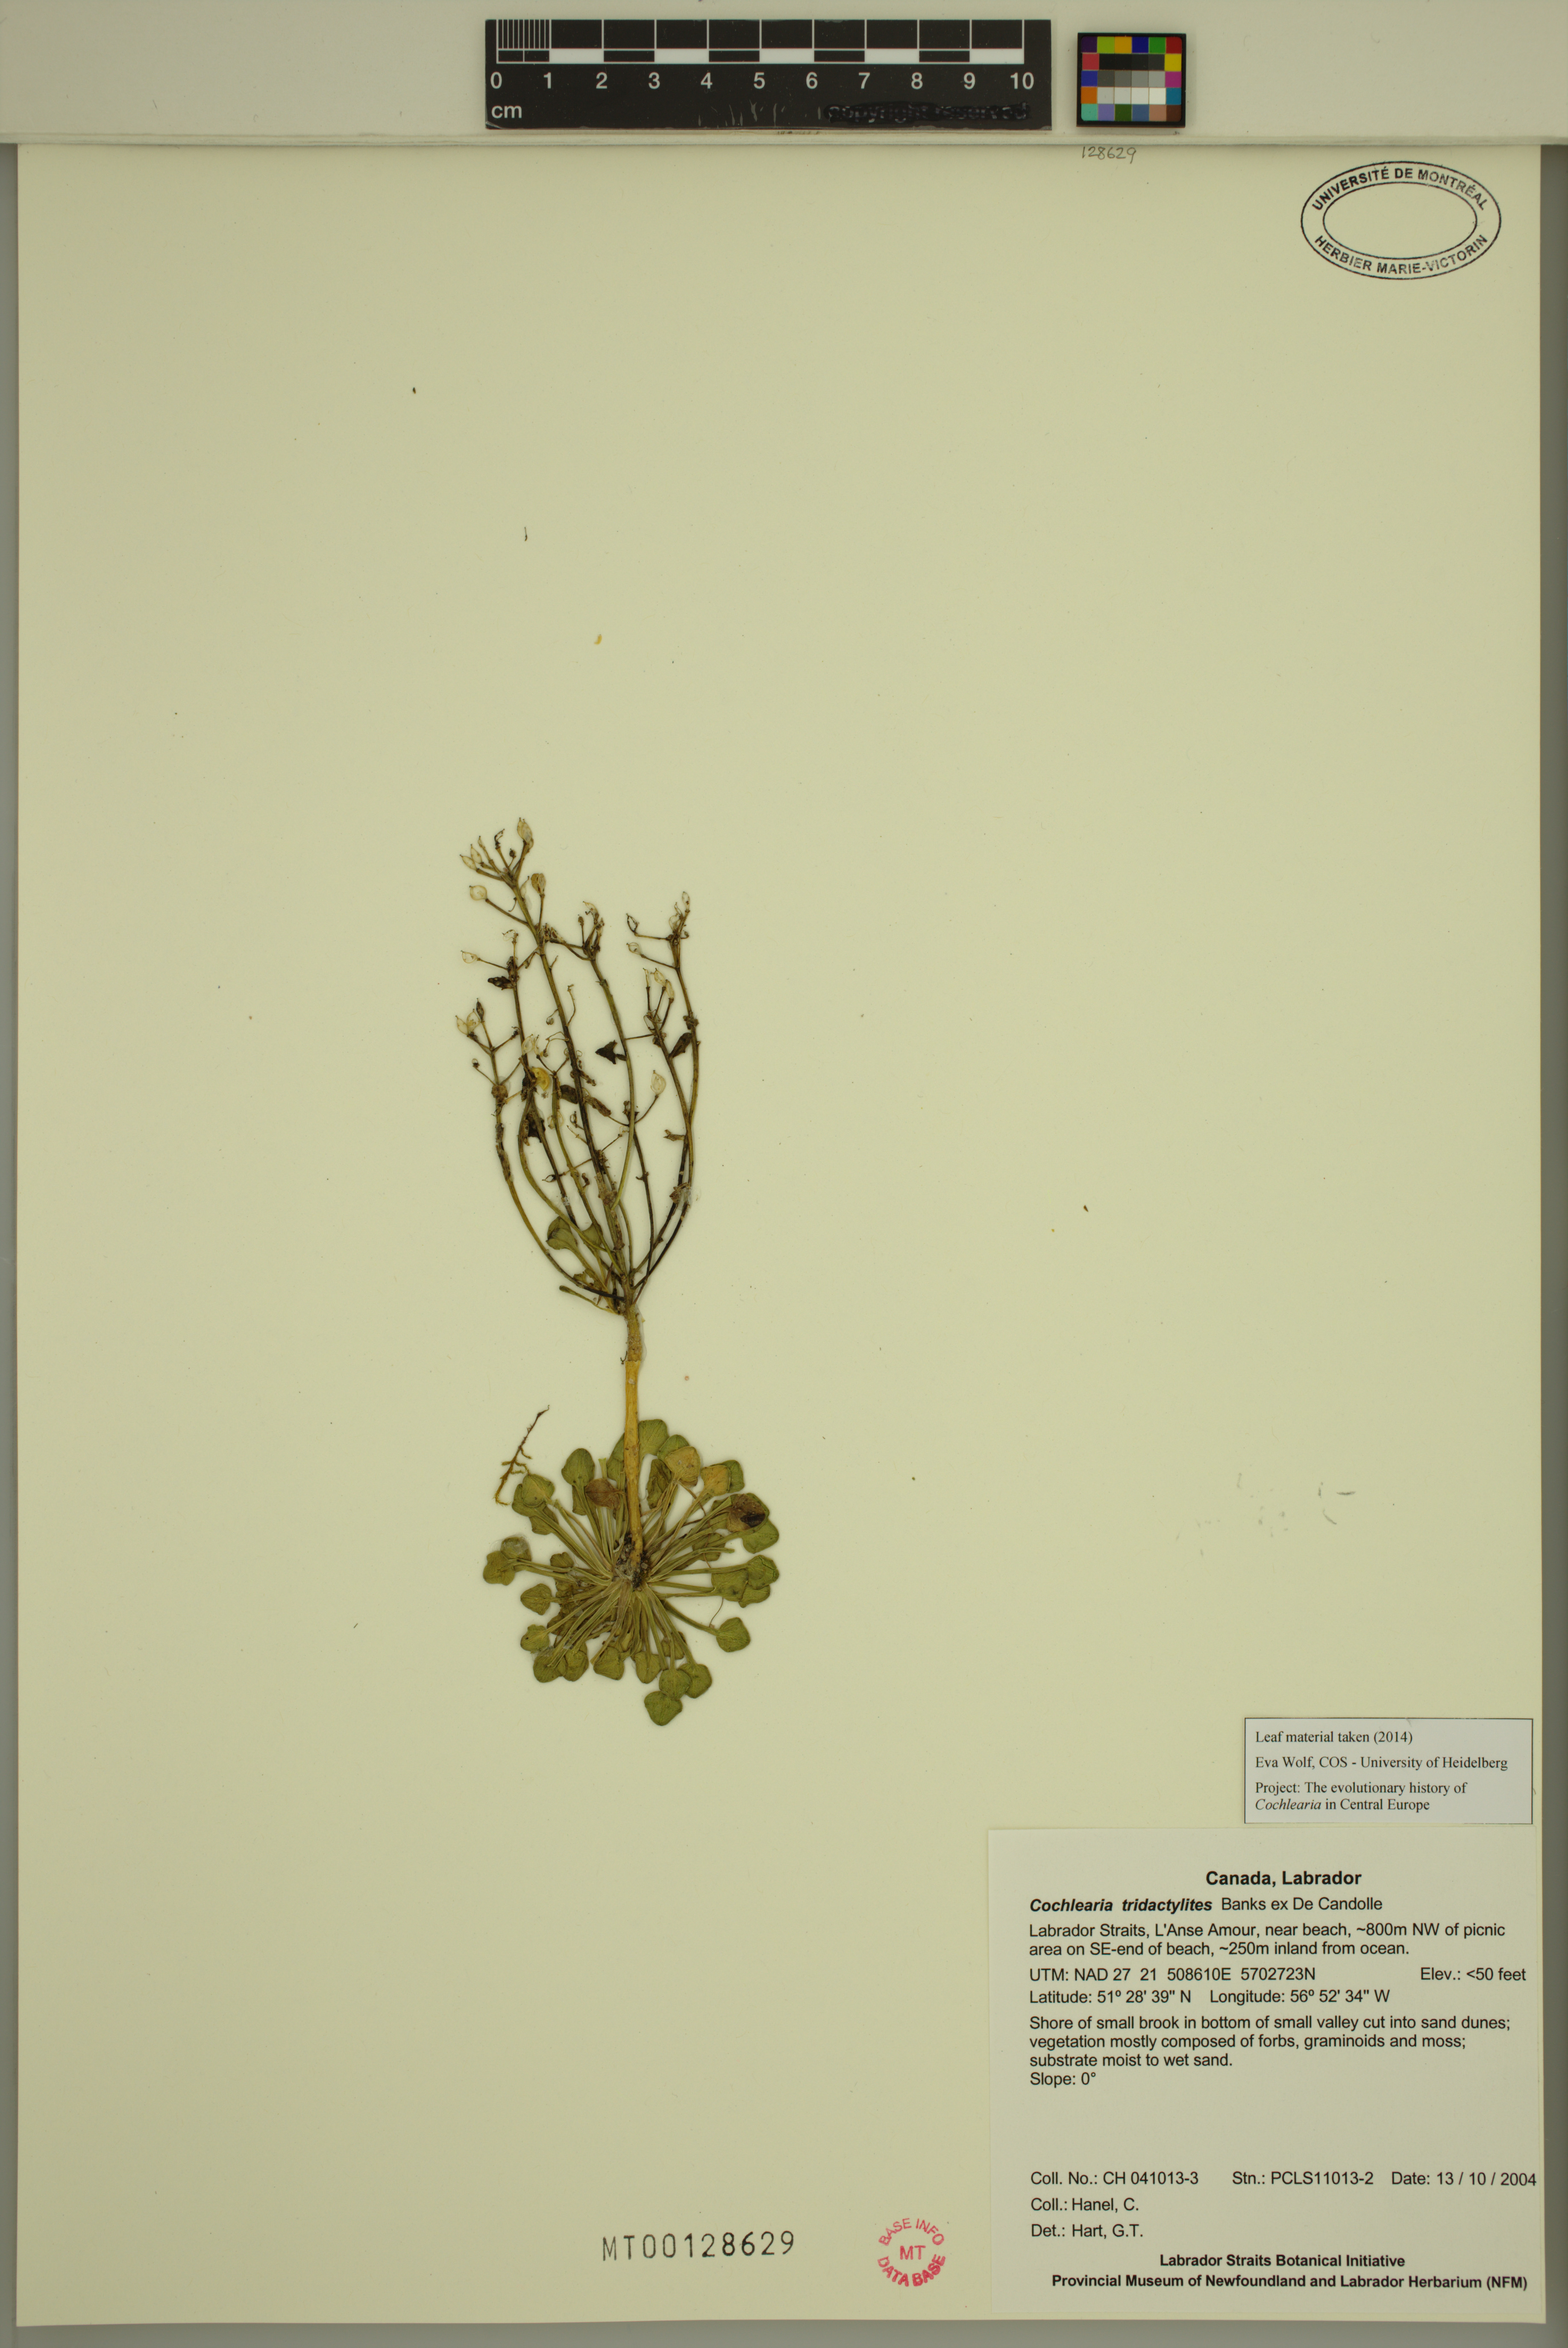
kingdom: Plantae
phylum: Tracheophyta
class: Magnoliopsida
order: Brassicales
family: Brassicaceae
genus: Cochlearia
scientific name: Cochlearia tridactylites
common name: Limestone scurvygrass
